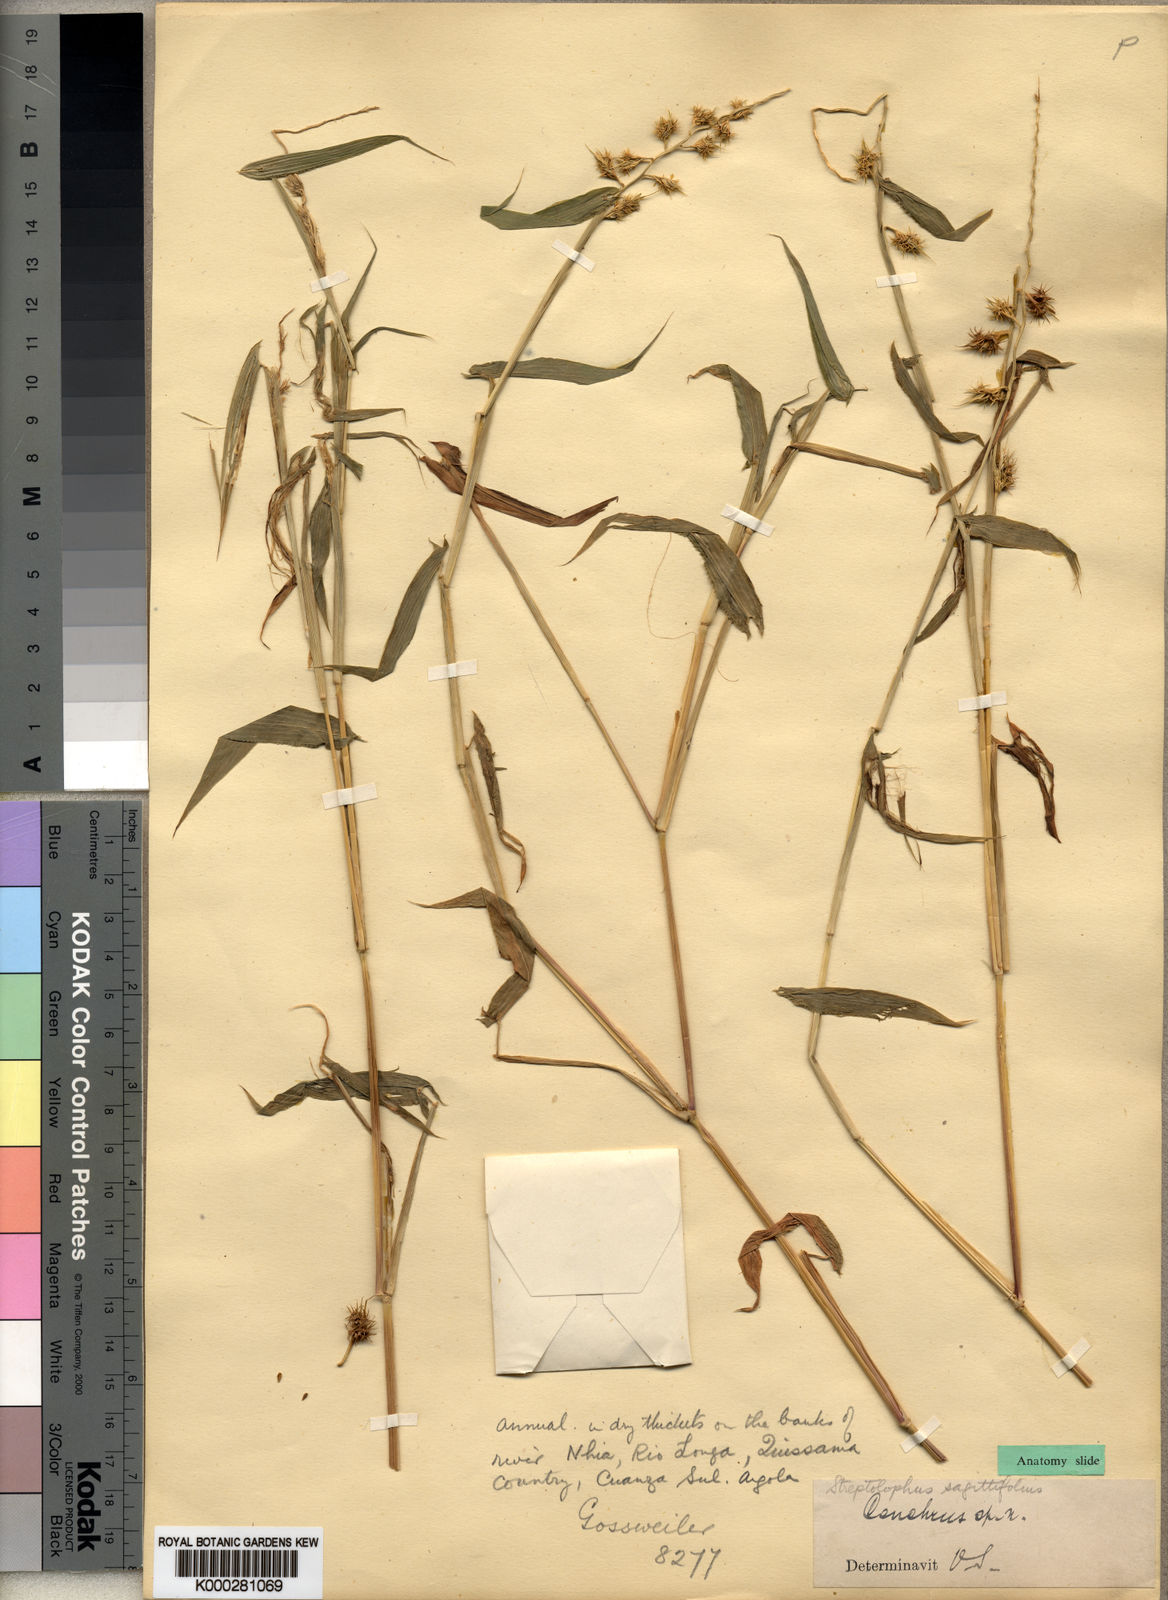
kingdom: Plantae
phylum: Tracheophyta
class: Liliopsida
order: Poales
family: Poaceae
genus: Streptolophus
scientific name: Streptolophus sagittifolius
